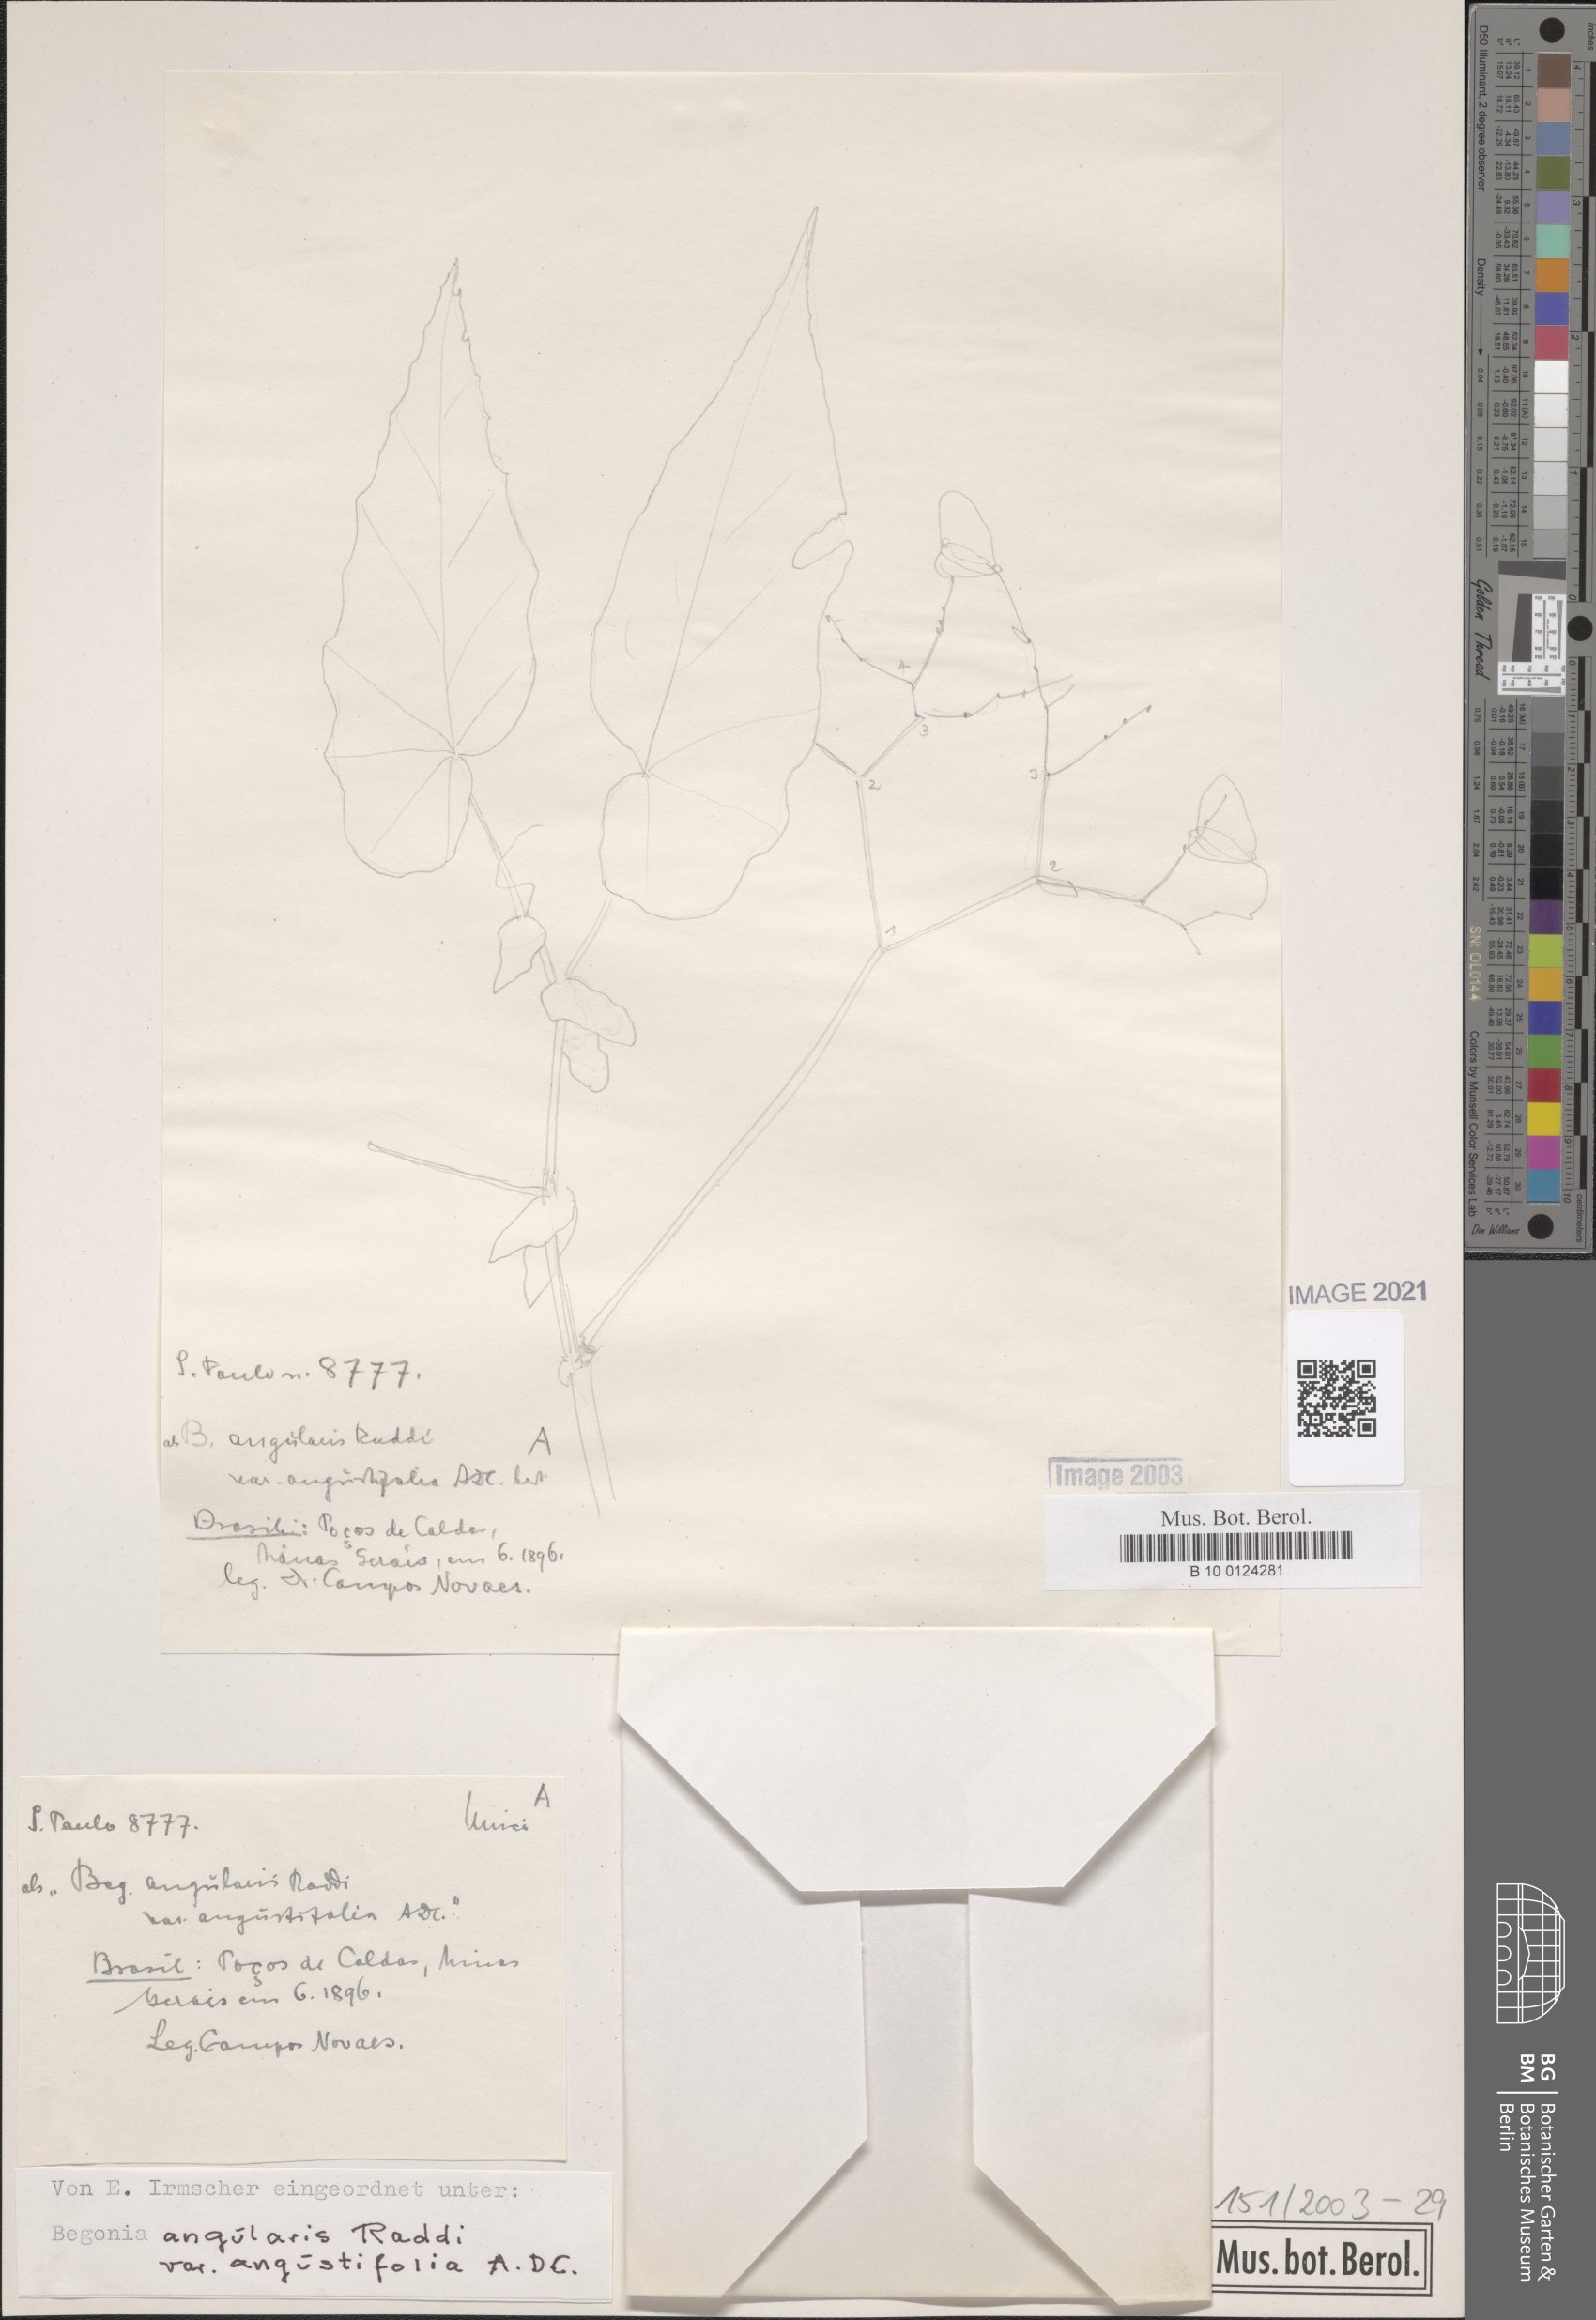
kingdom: Plantae
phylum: Tracheophyta
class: Magnoliopsida
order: Cucurbitales
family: Begoniaceae
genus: Begonia
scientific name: Begonia angularis
